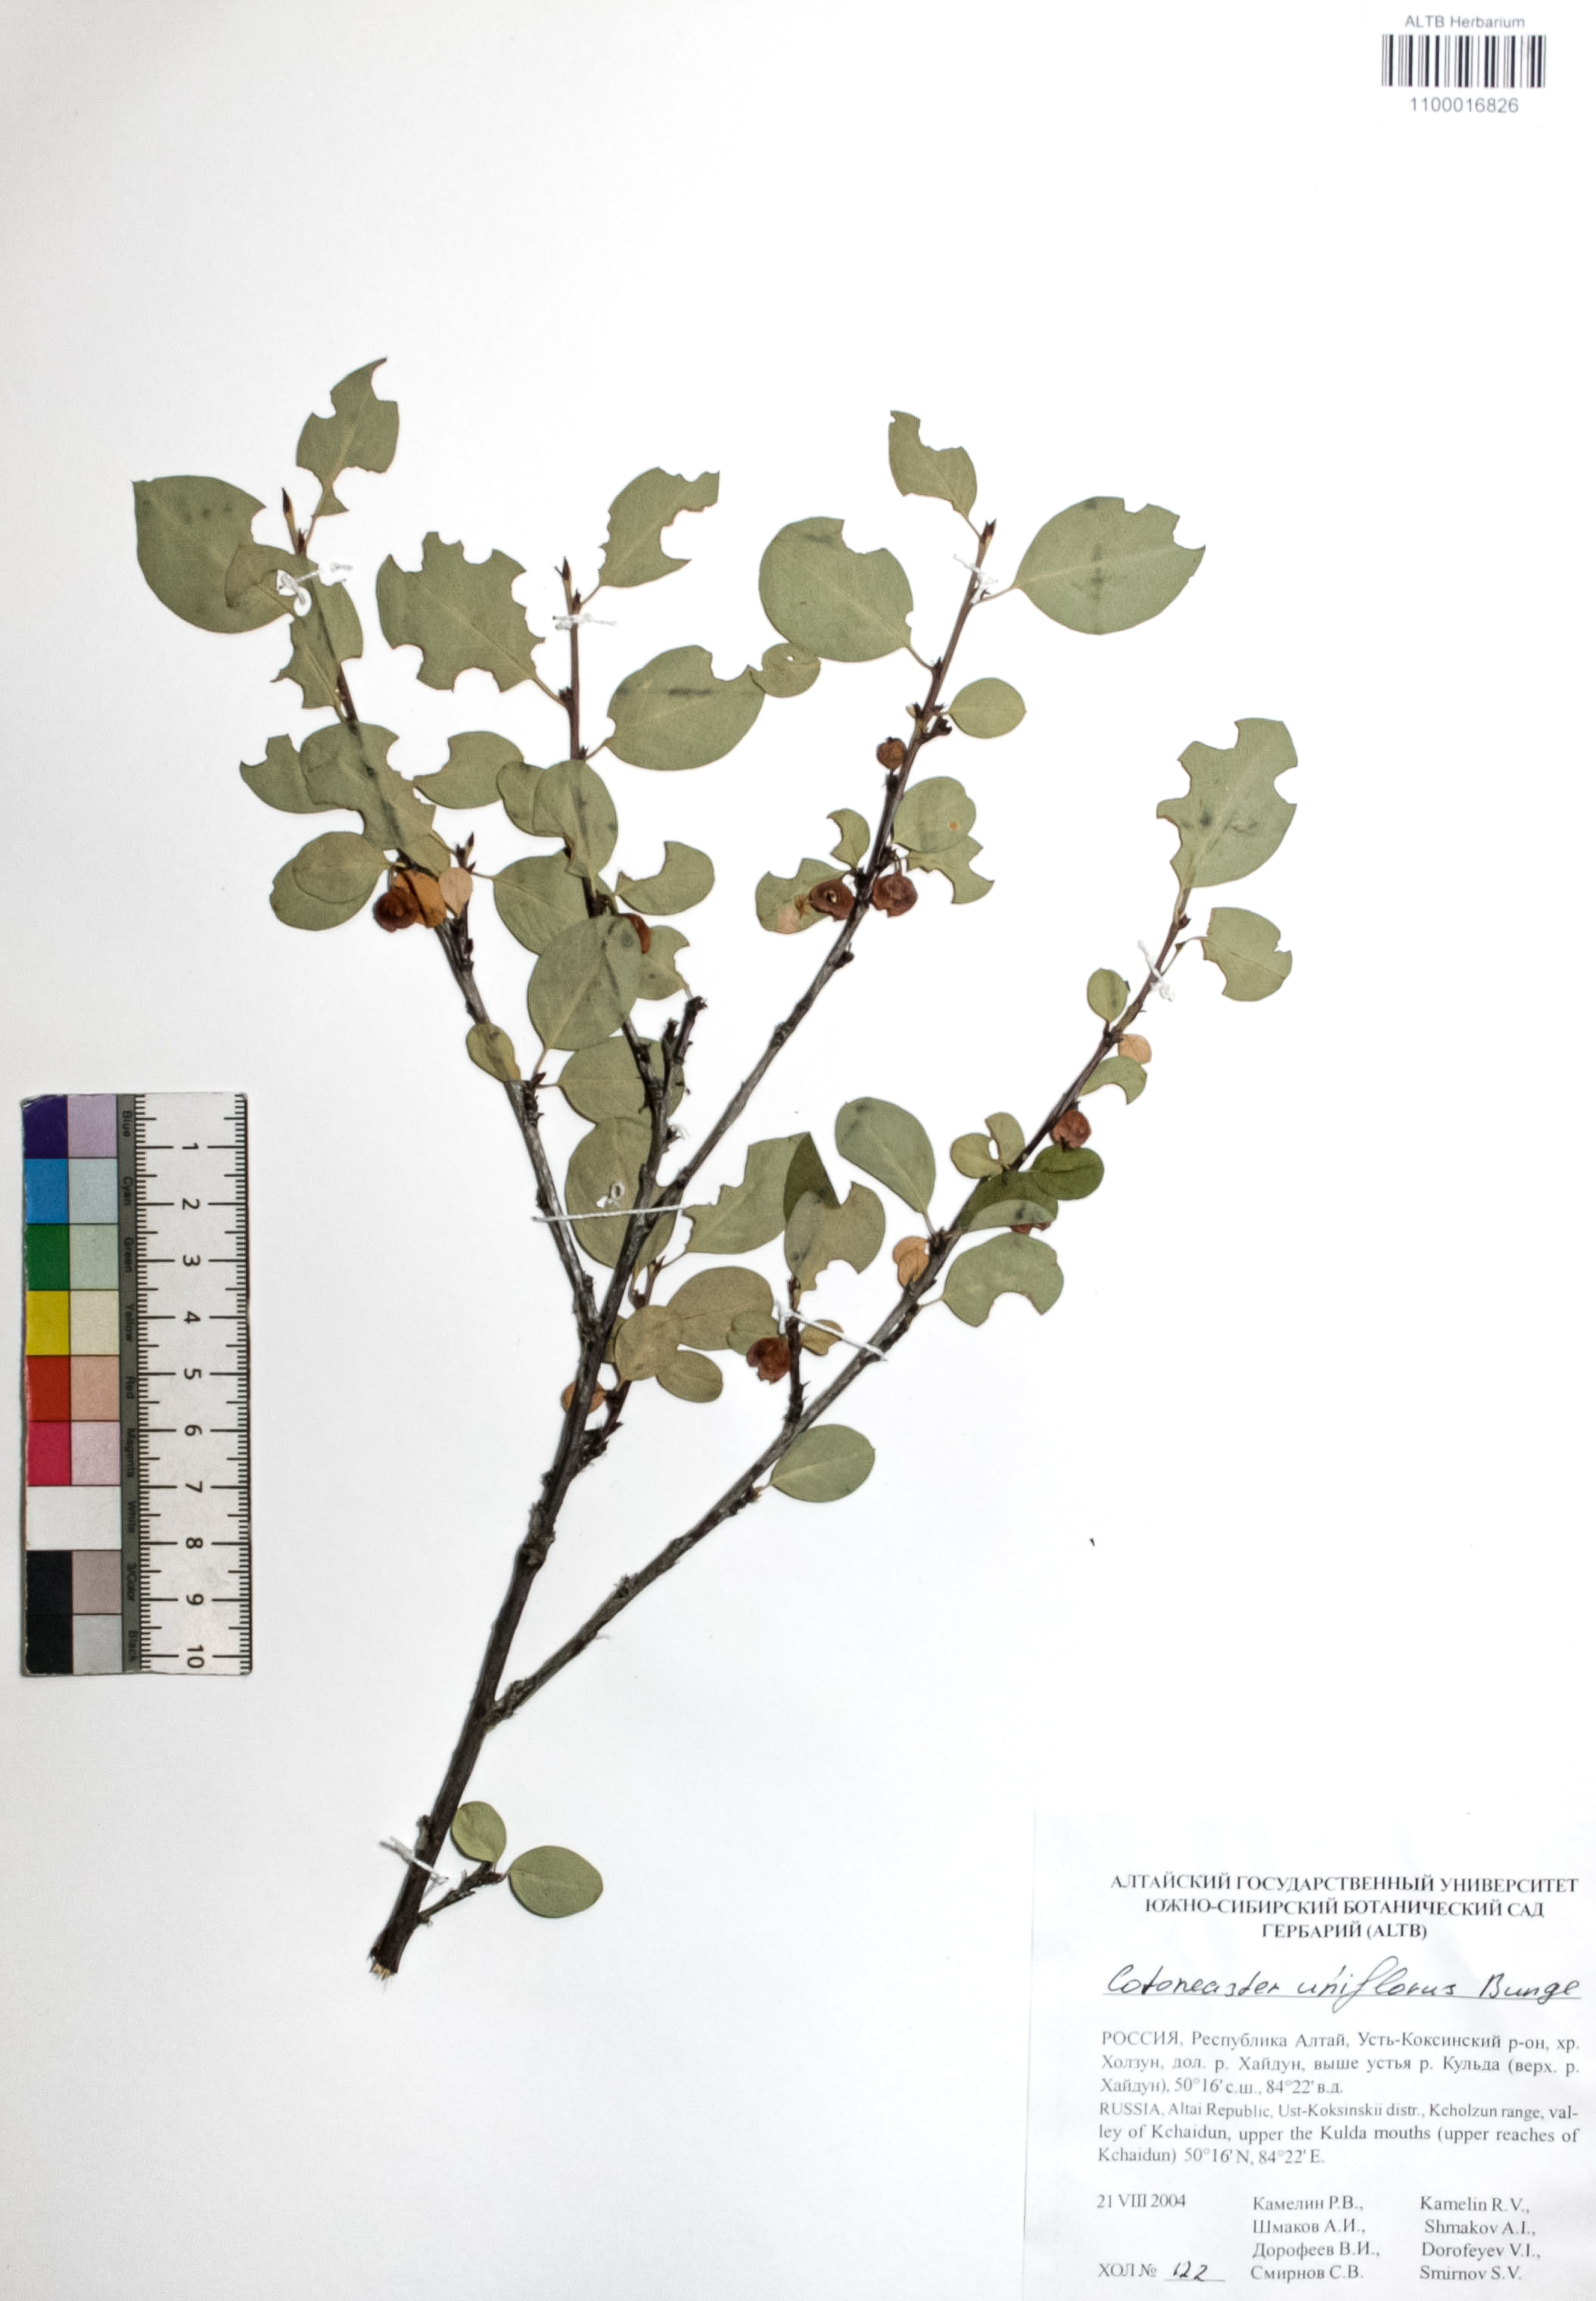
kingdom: Plantae
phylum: Tracheophyta
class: Magnoliopsida
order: Rosales
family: Rosaceae
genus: Cotoneaster
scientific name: Cotoneaster uniflorus
